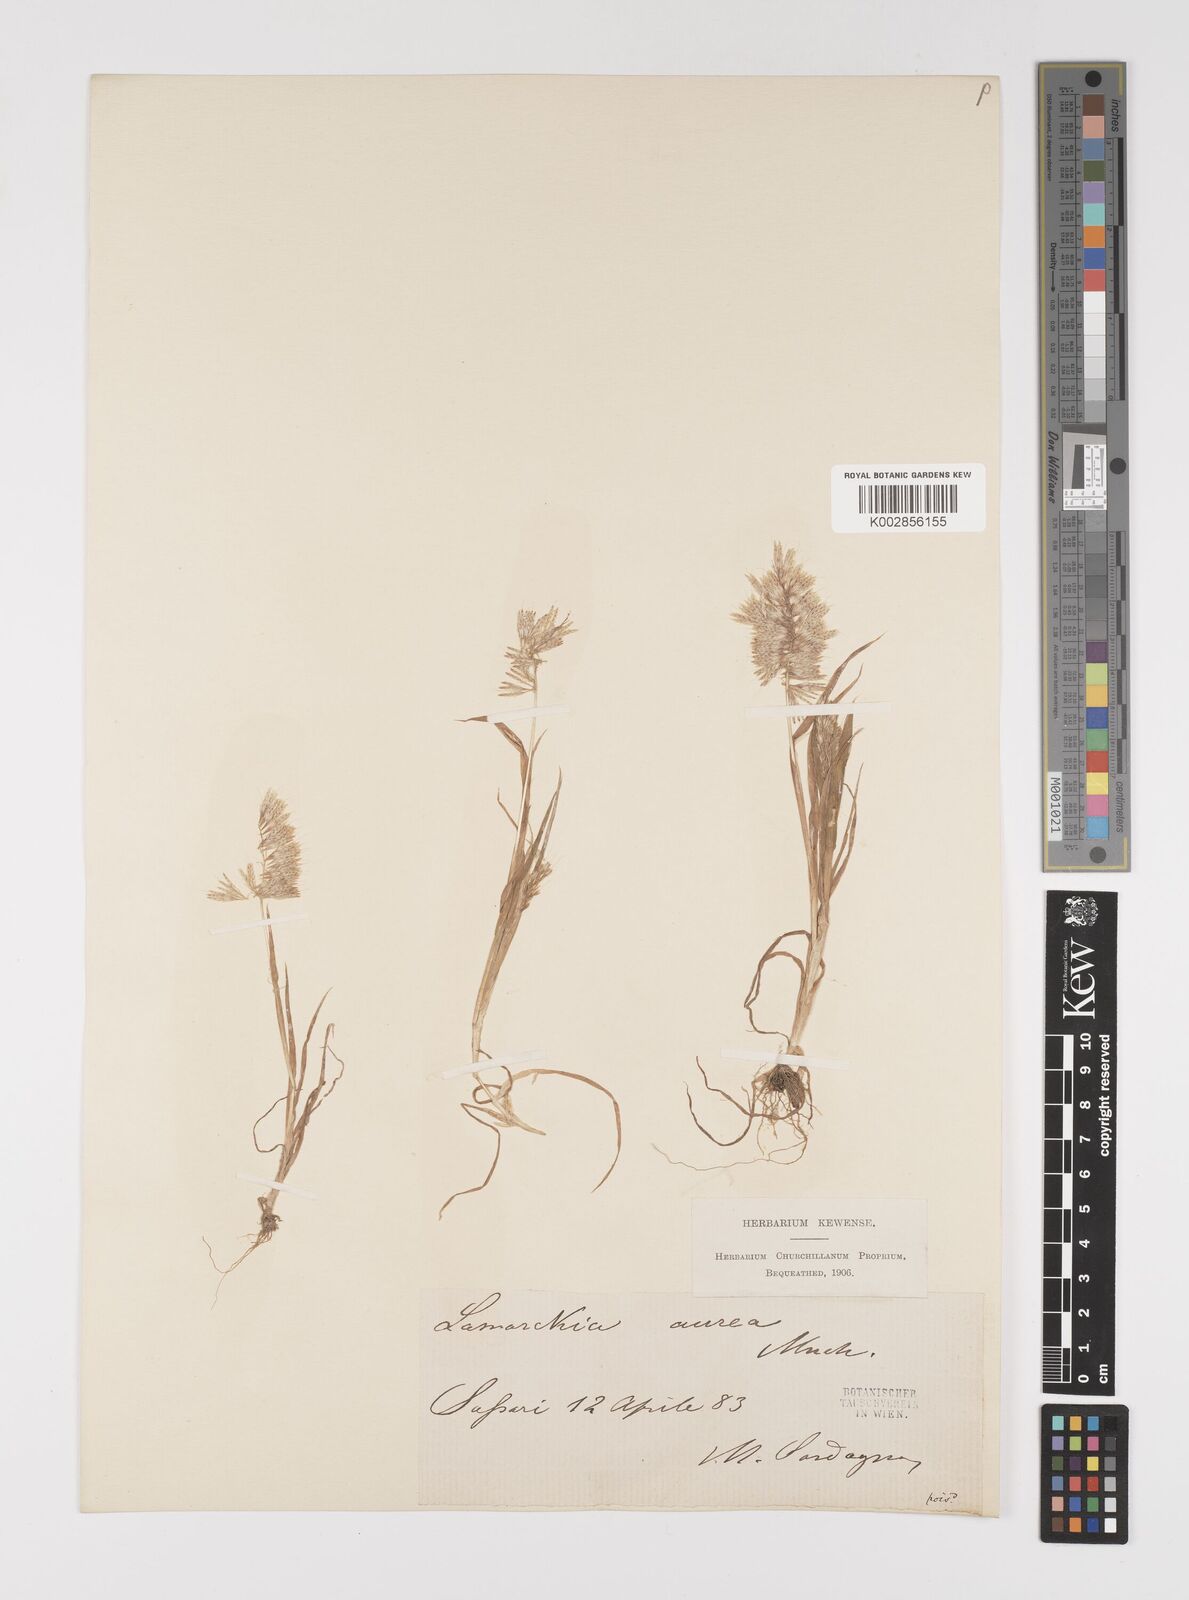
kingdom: Plantae
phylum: Tracheophyta
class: Liliopsida
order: Poales
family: Poaceae
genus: Lamarckia
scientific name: Lamarckia aurea
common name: Golden dog's-tail
